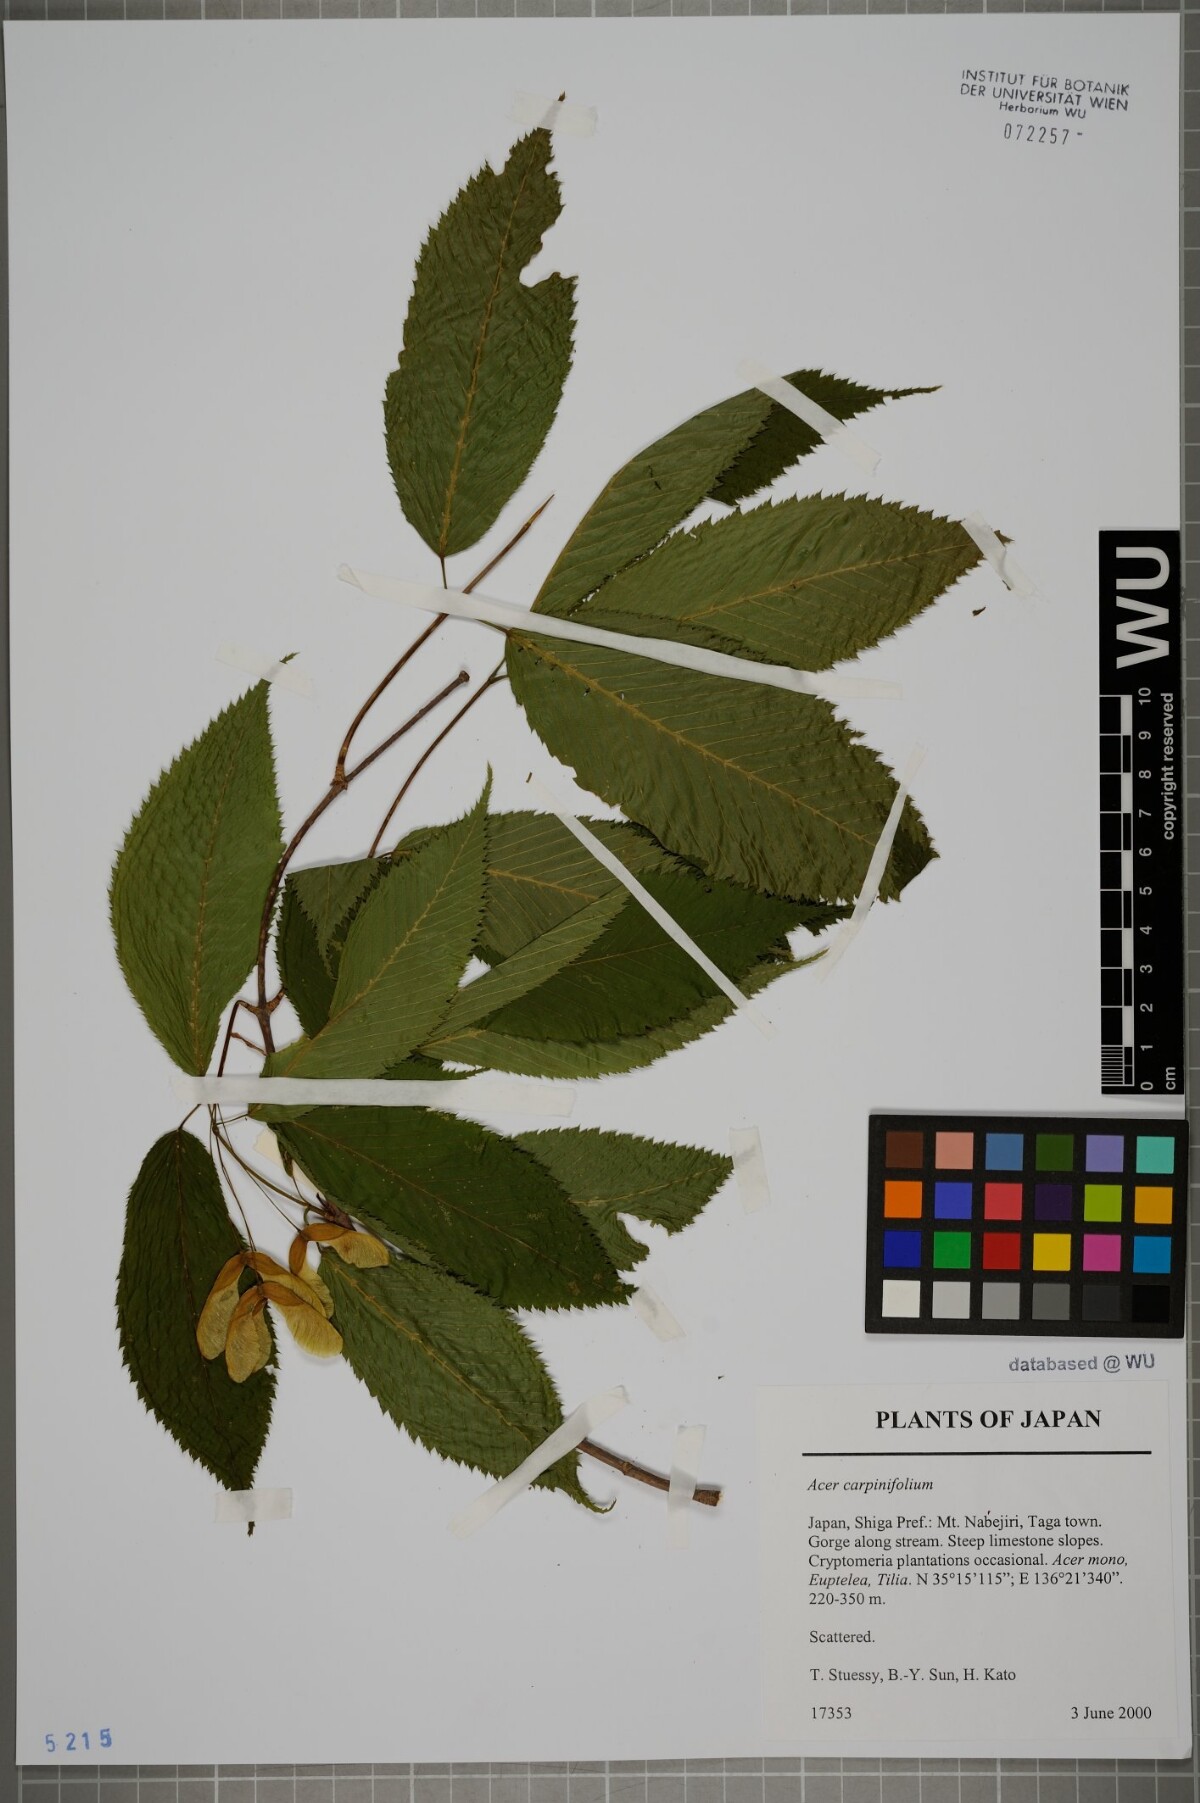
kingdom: Plantae
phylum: Tracheophyta
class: Magnoliopsida
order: Sapindales
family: Sapindaceae
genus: Acer
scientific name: Acer carpinifolium
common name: Hornbeam maple
